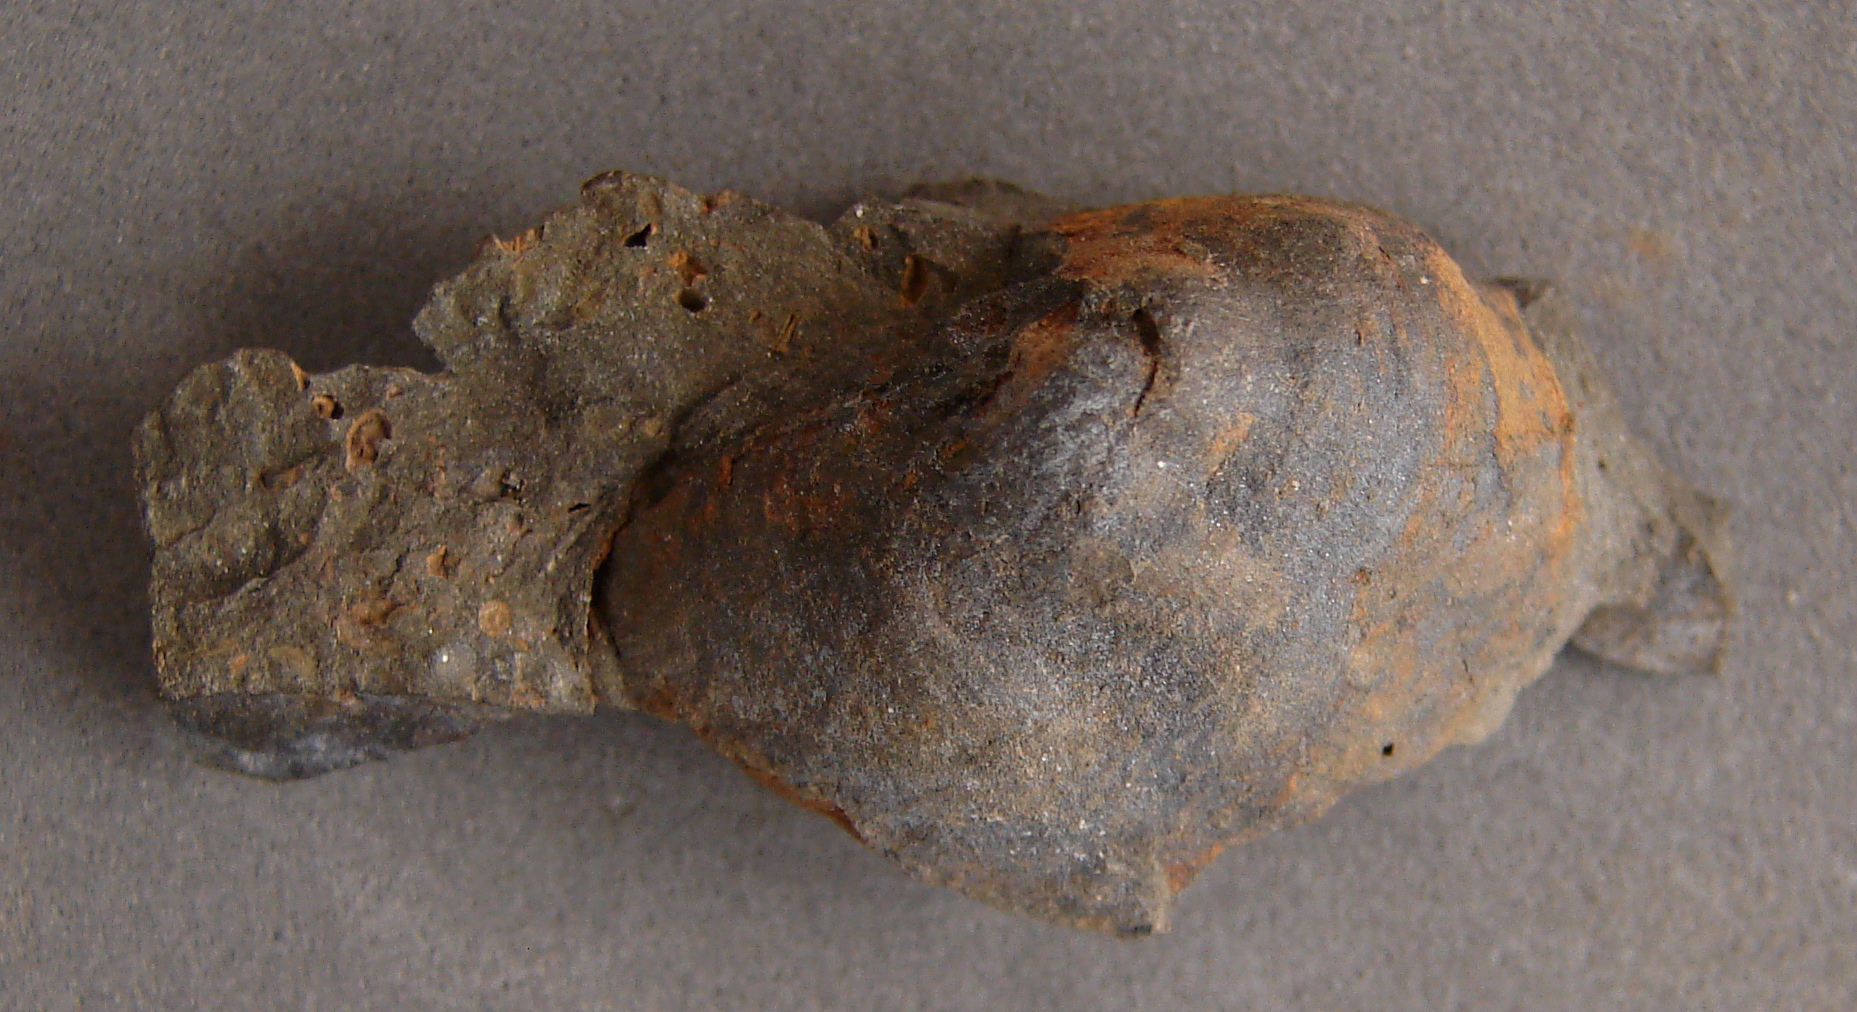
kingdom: Animalia
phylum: Brachiopoda
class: Craniata
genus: Merglia
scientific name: Merglia
